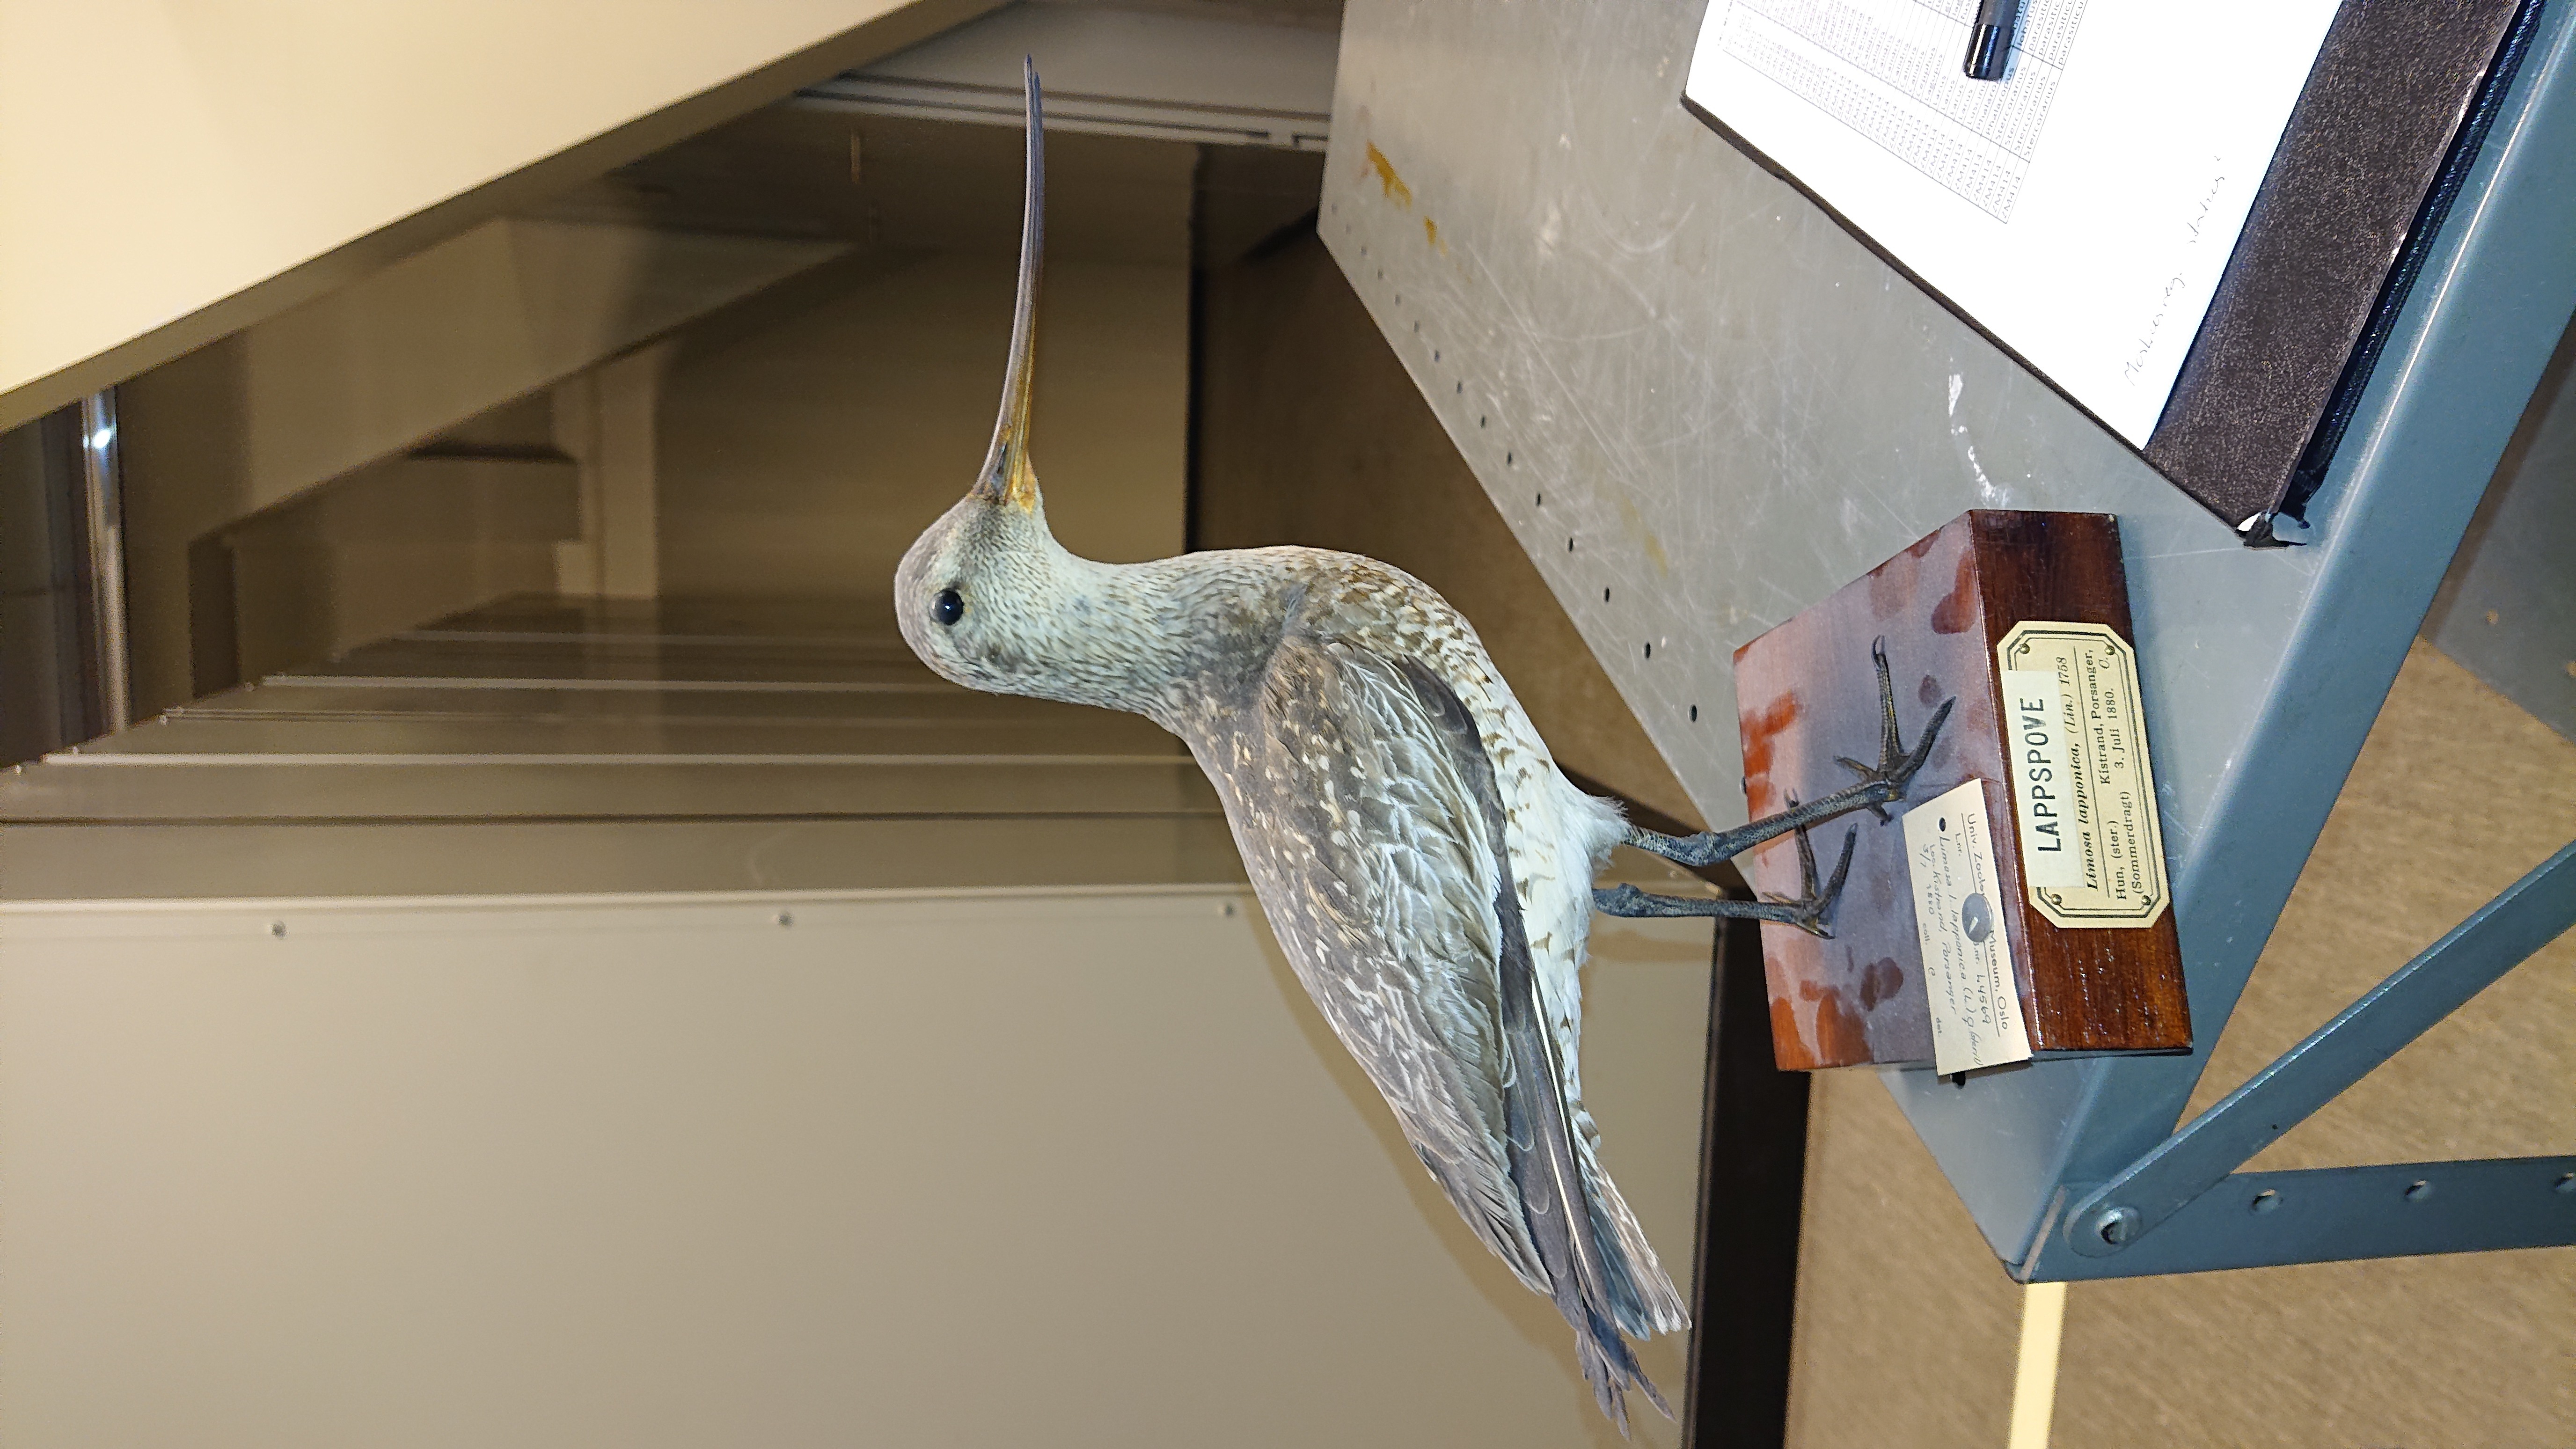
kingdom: Animalia
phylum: Chordata
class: Aves
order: Charadriiformes
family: Scolopacidae
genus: Limosa
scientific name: Limosa lapponica
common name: Bar-tailed godwit
